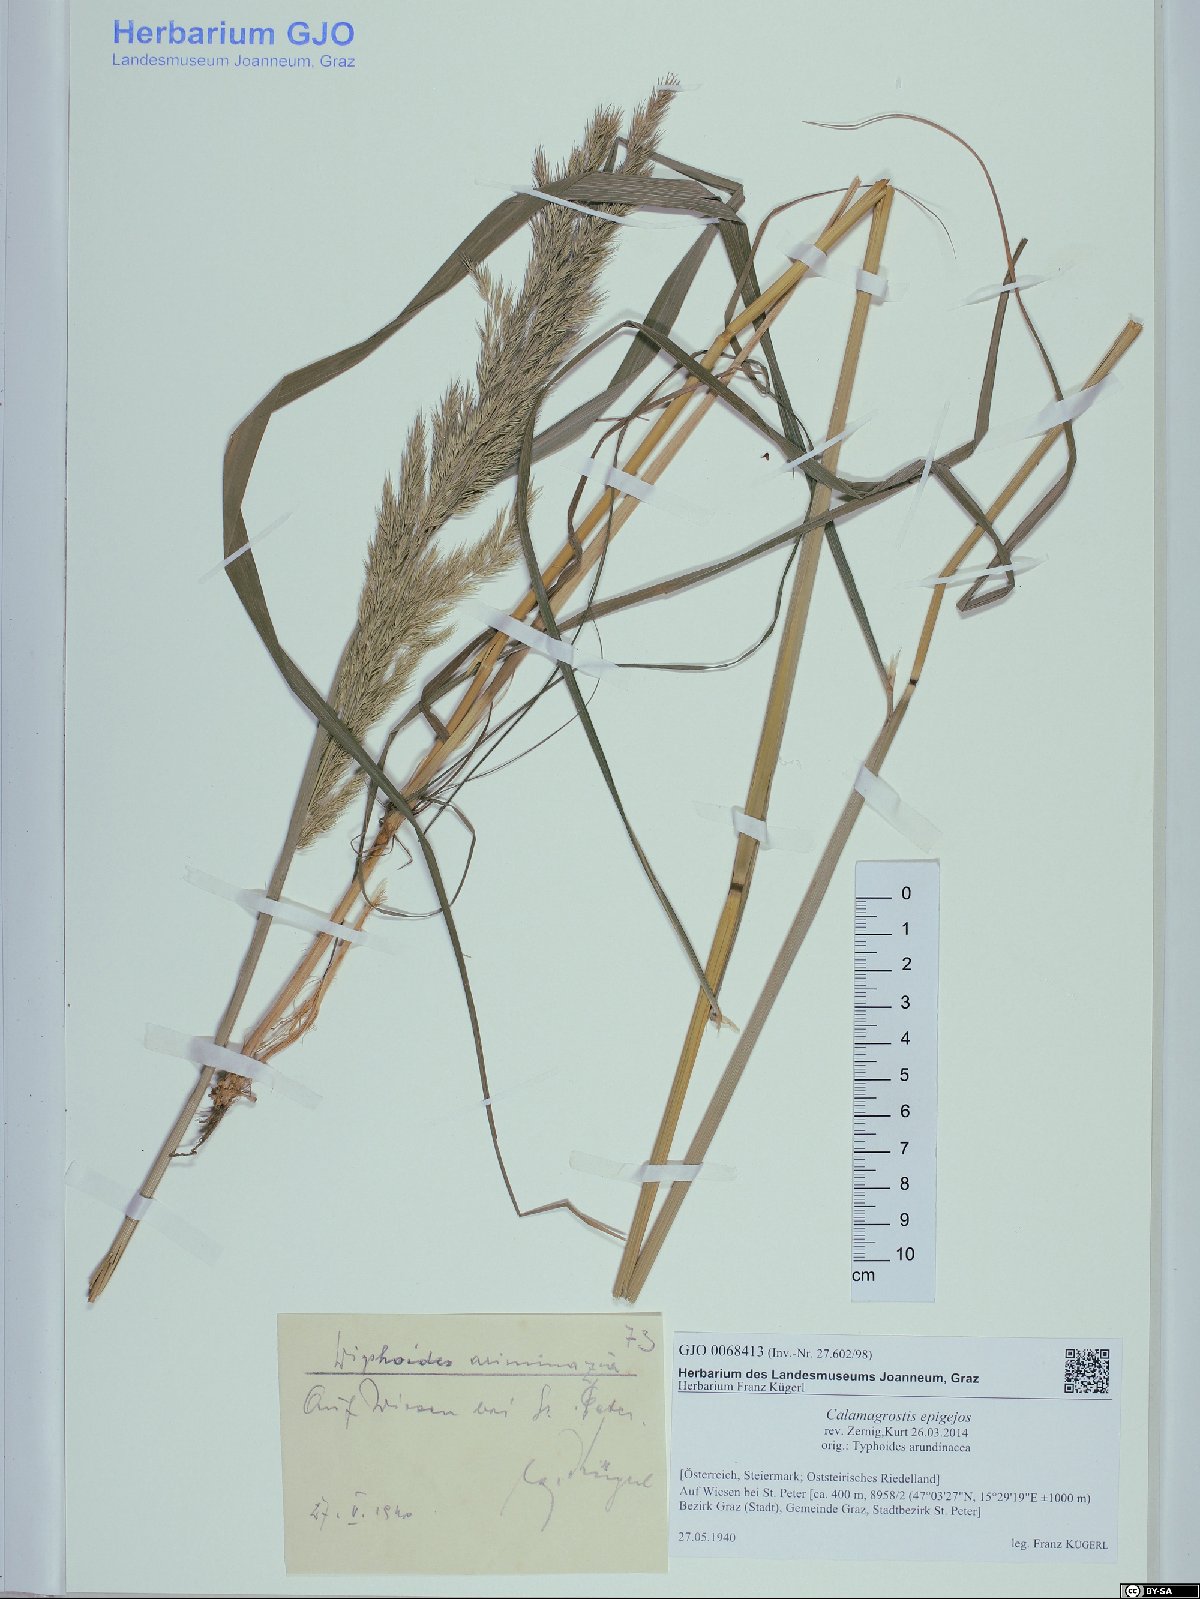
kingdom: Plantae
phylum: Tracheophyta
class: Liliopsida
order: Poales
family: Poaceae
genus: Calamagrostis
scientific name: Calamagrostis epigejos
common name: Wood small-reed
